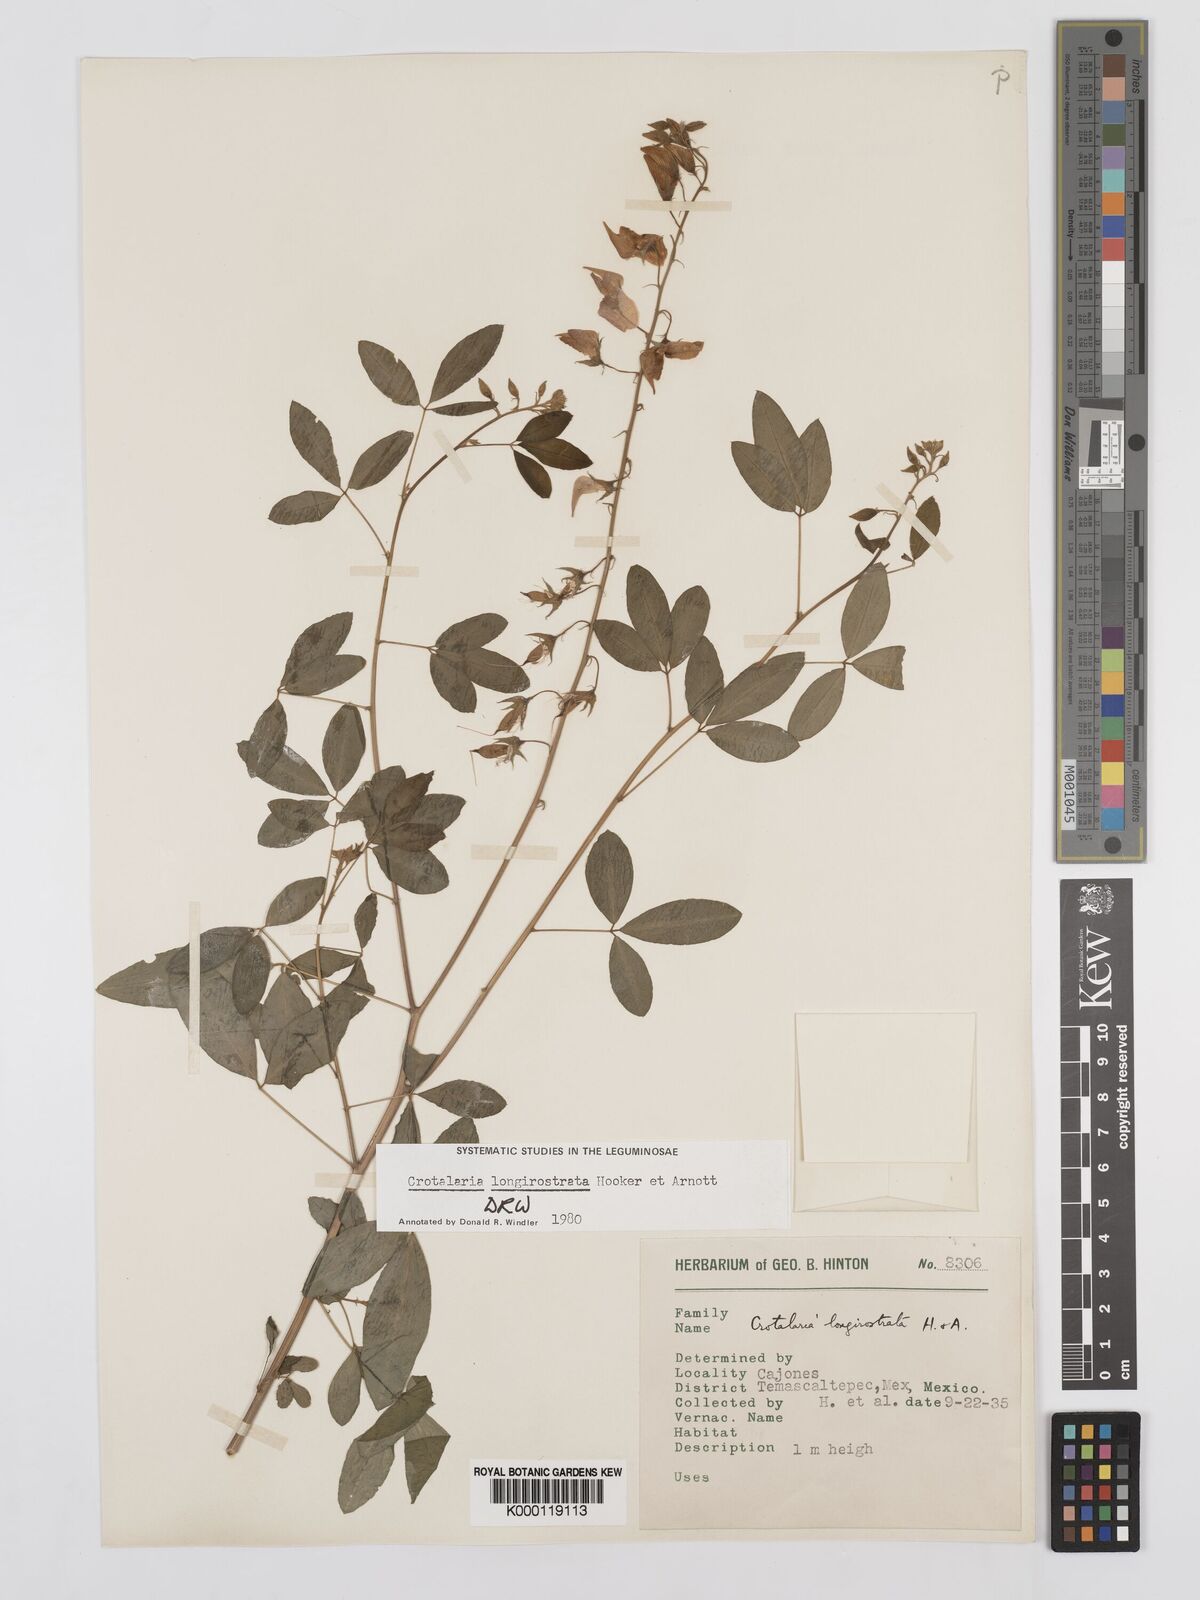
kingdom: Plantae
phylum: Tracheophyta
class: Magnoliopsida
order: Fabales
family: Fabaceae
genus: Crotalaria
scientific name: Crotalaria longirostrata
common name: Longbeak rattlebox
